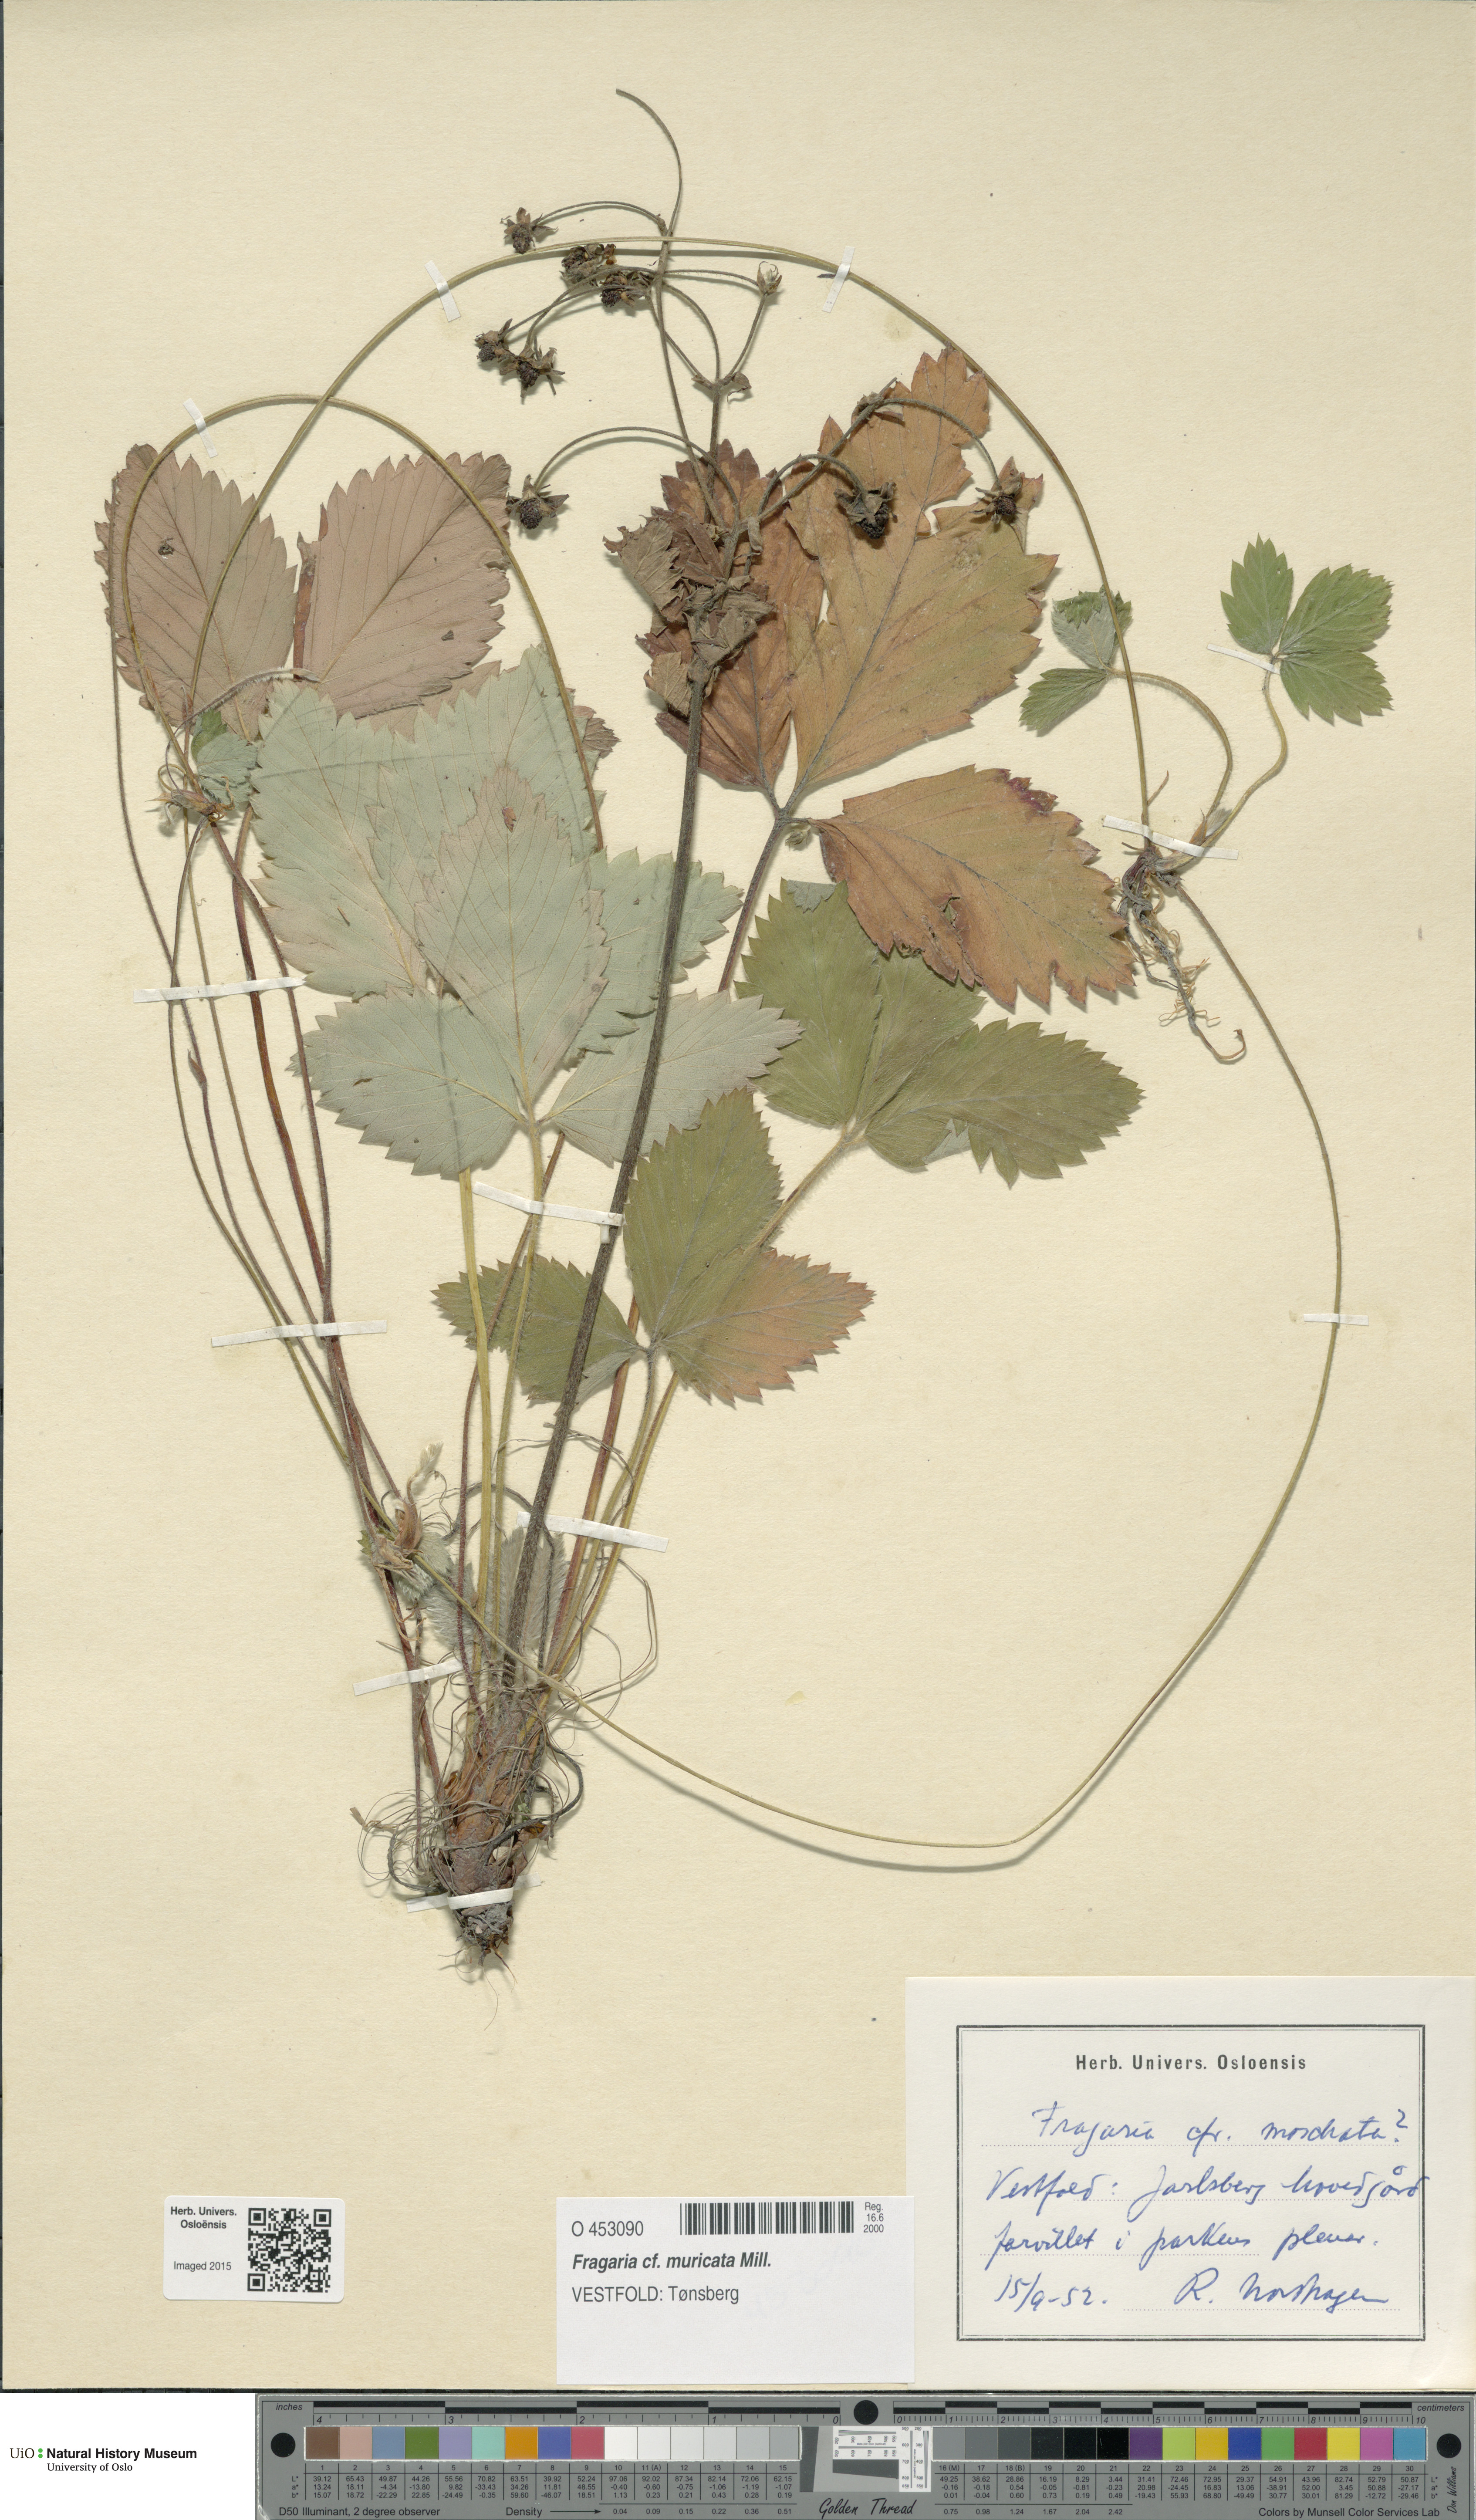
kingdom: Plantae
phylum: Tracheophyta
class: Magnoliopsida
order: Rosales
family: Rosaceae
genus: Fragaria
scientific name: Fragaria moschata
